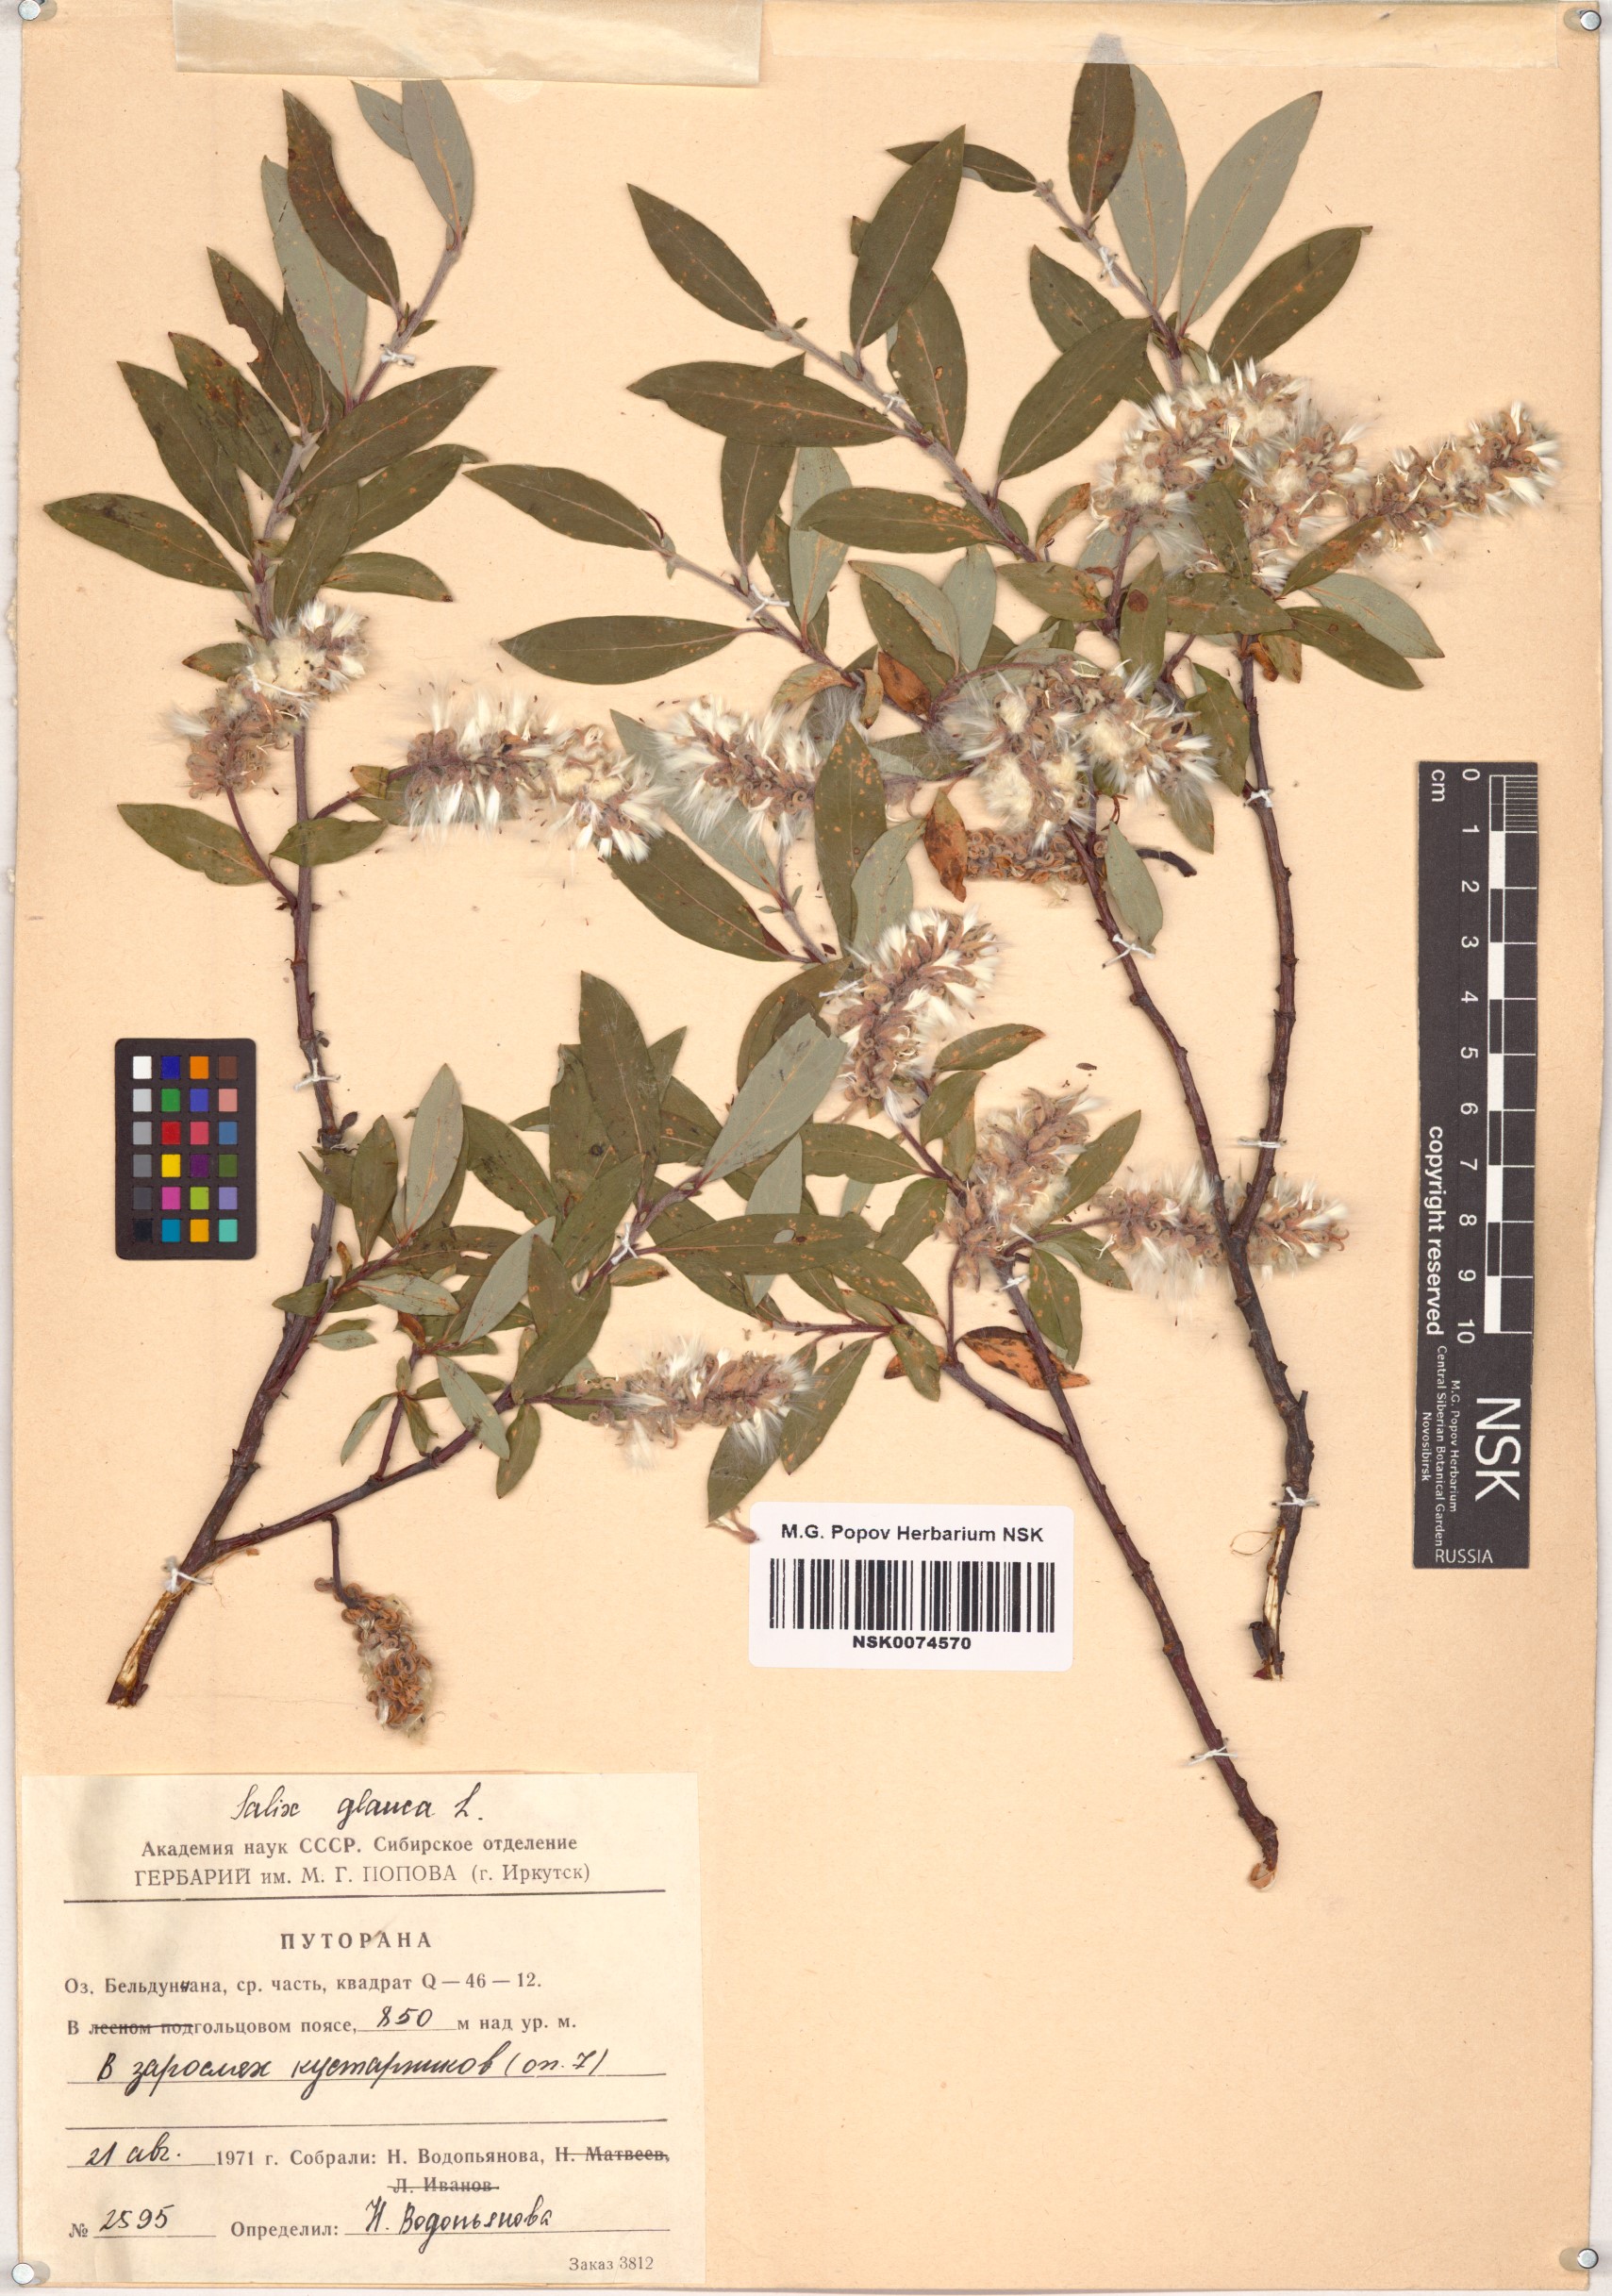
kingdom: Plantae
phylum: Tracheophyta
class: Magnoliopsida
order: Malpighiales
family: Salicaceae
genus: Salix
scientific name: Salix glauca
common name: Glaucous willow
